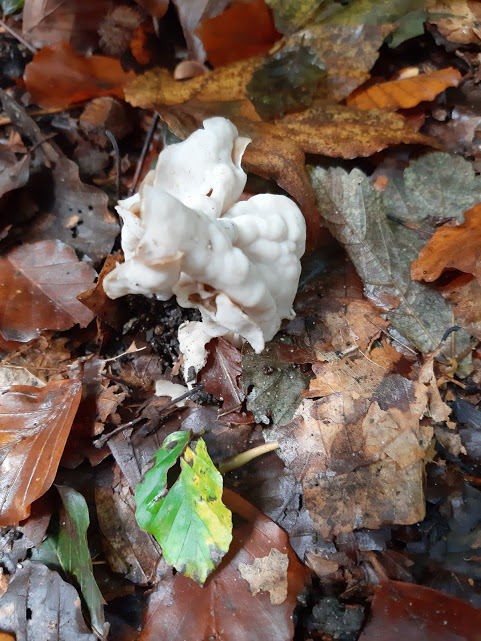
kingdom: Fungi
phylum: Ascomycota
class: Pezizomycetes
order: Pezizales
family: Helvellaceae
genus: Helvella
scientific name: Helvella crispa
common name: kruset foldhat
